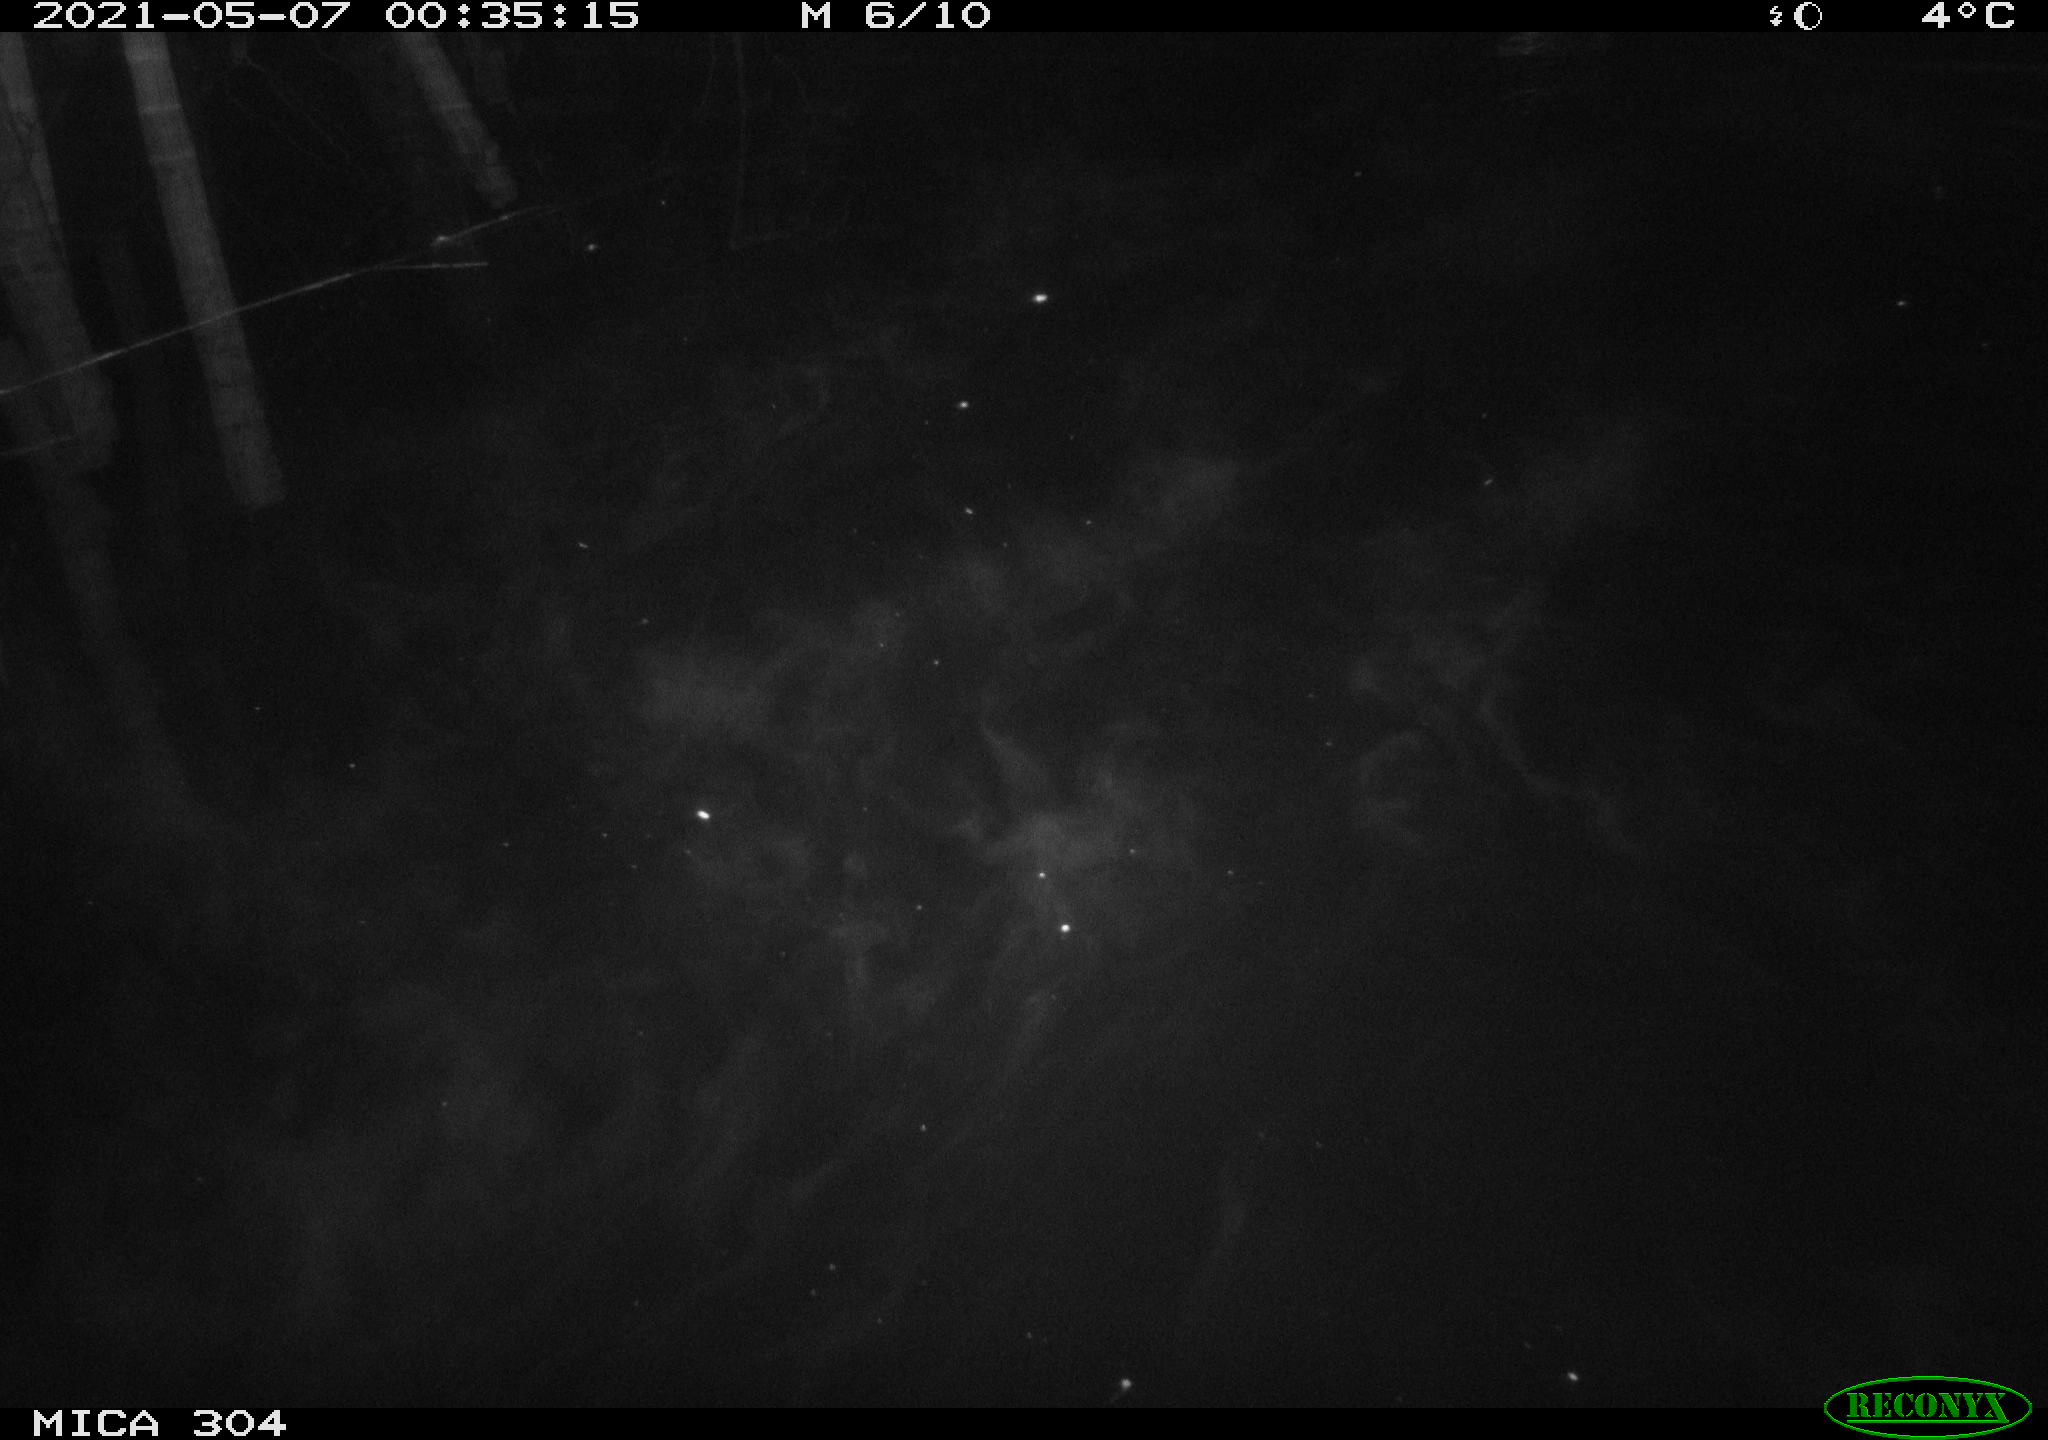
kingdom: Animalia
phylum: Chordata
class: Aves
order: Anseriformes
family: Anatidae
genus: Anas
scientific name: Anas platyrhynchos
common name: Mallard
